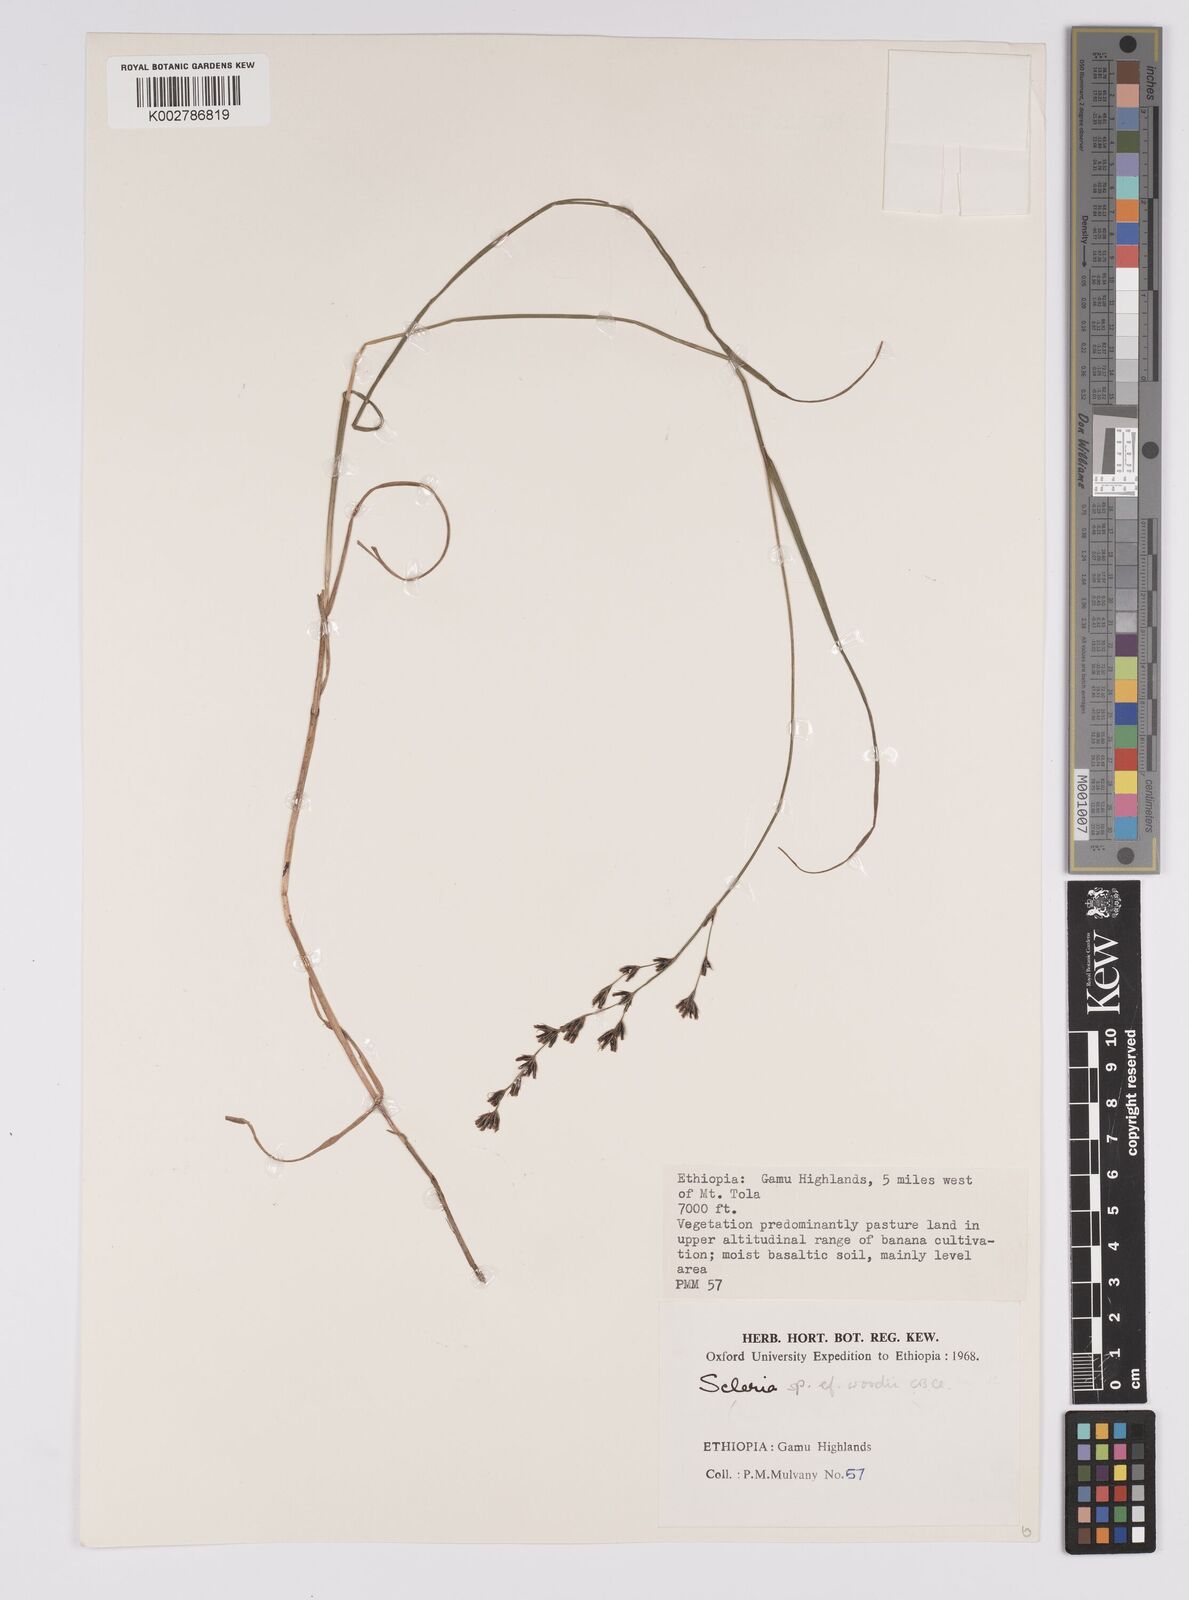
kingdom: Plantae
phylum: Tracheophyta
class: Liliopsida
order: Poales
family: Cyperaceae
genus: Scleria
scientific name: Scleria woodii
